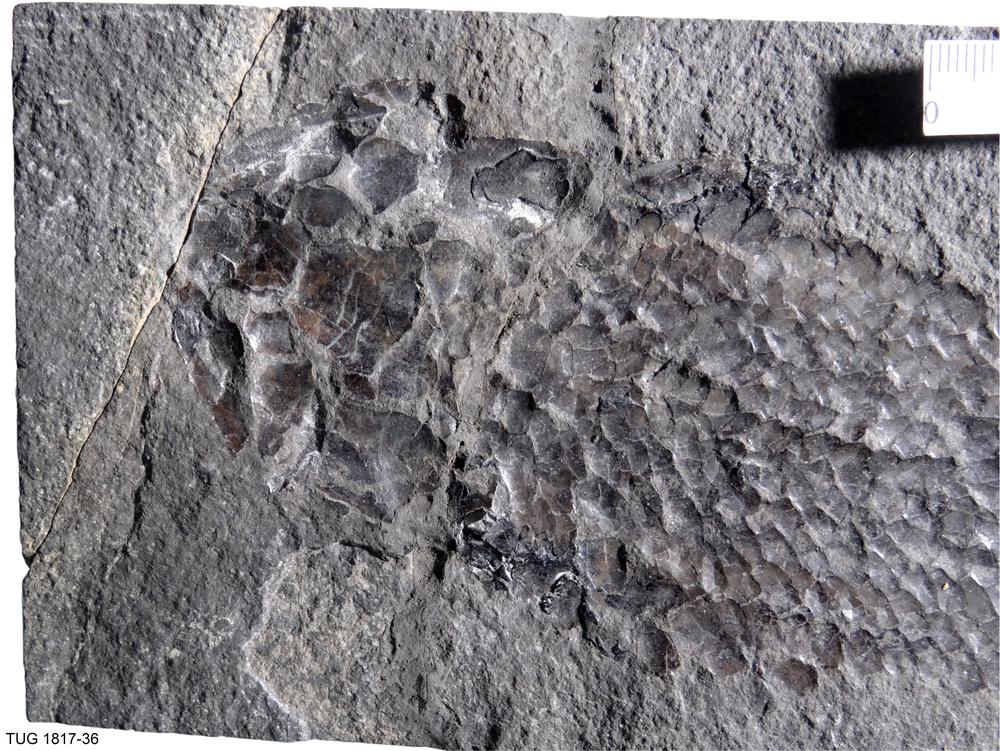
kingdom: Animalia
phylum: Chordata
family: Thursiidae
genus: Thursius
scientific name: Thursius pholidotus
